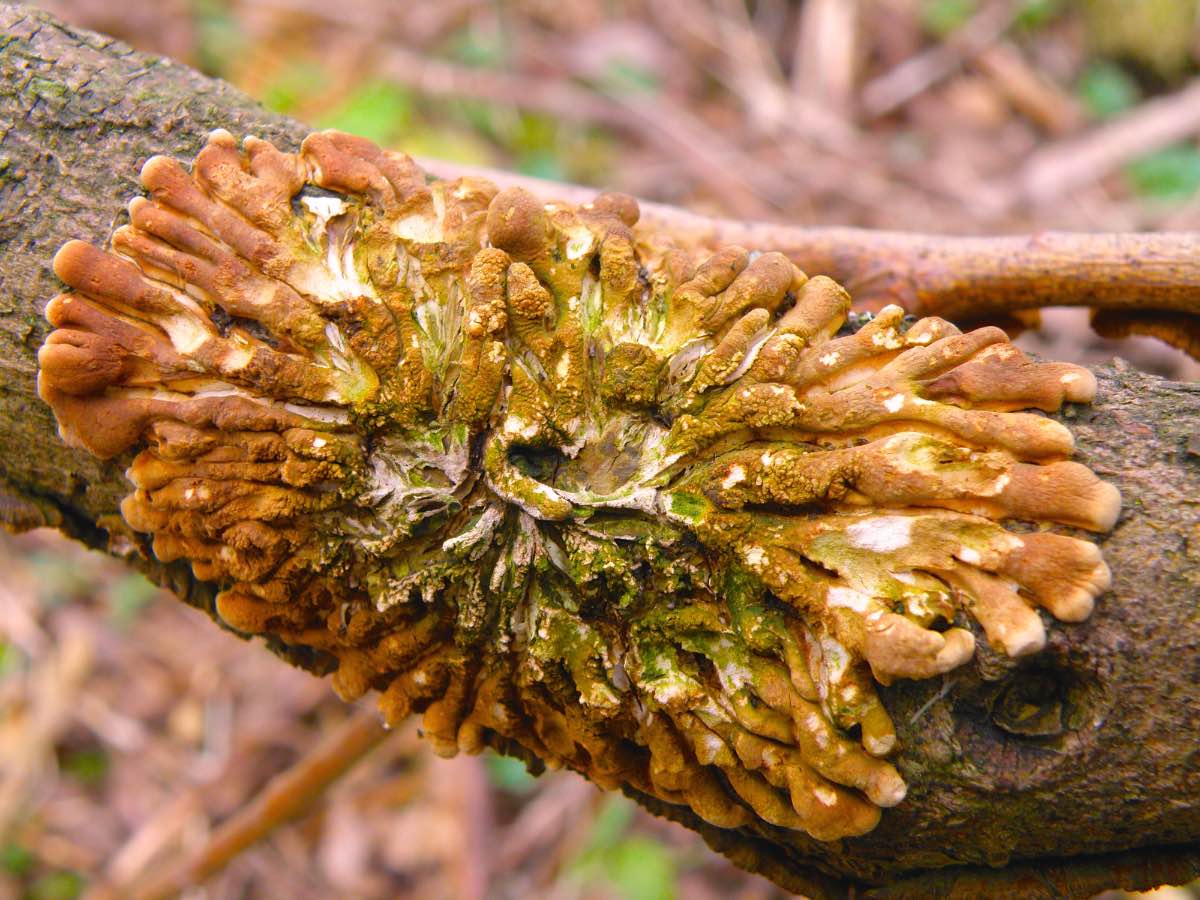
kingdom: Fungi
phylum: Ascomycota
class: Sordariomycetes
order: Hypocreales
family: Hypocreaceae
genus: Hypocreopsis
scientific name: Hypocreopsis lichenoides
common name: pilfinger
